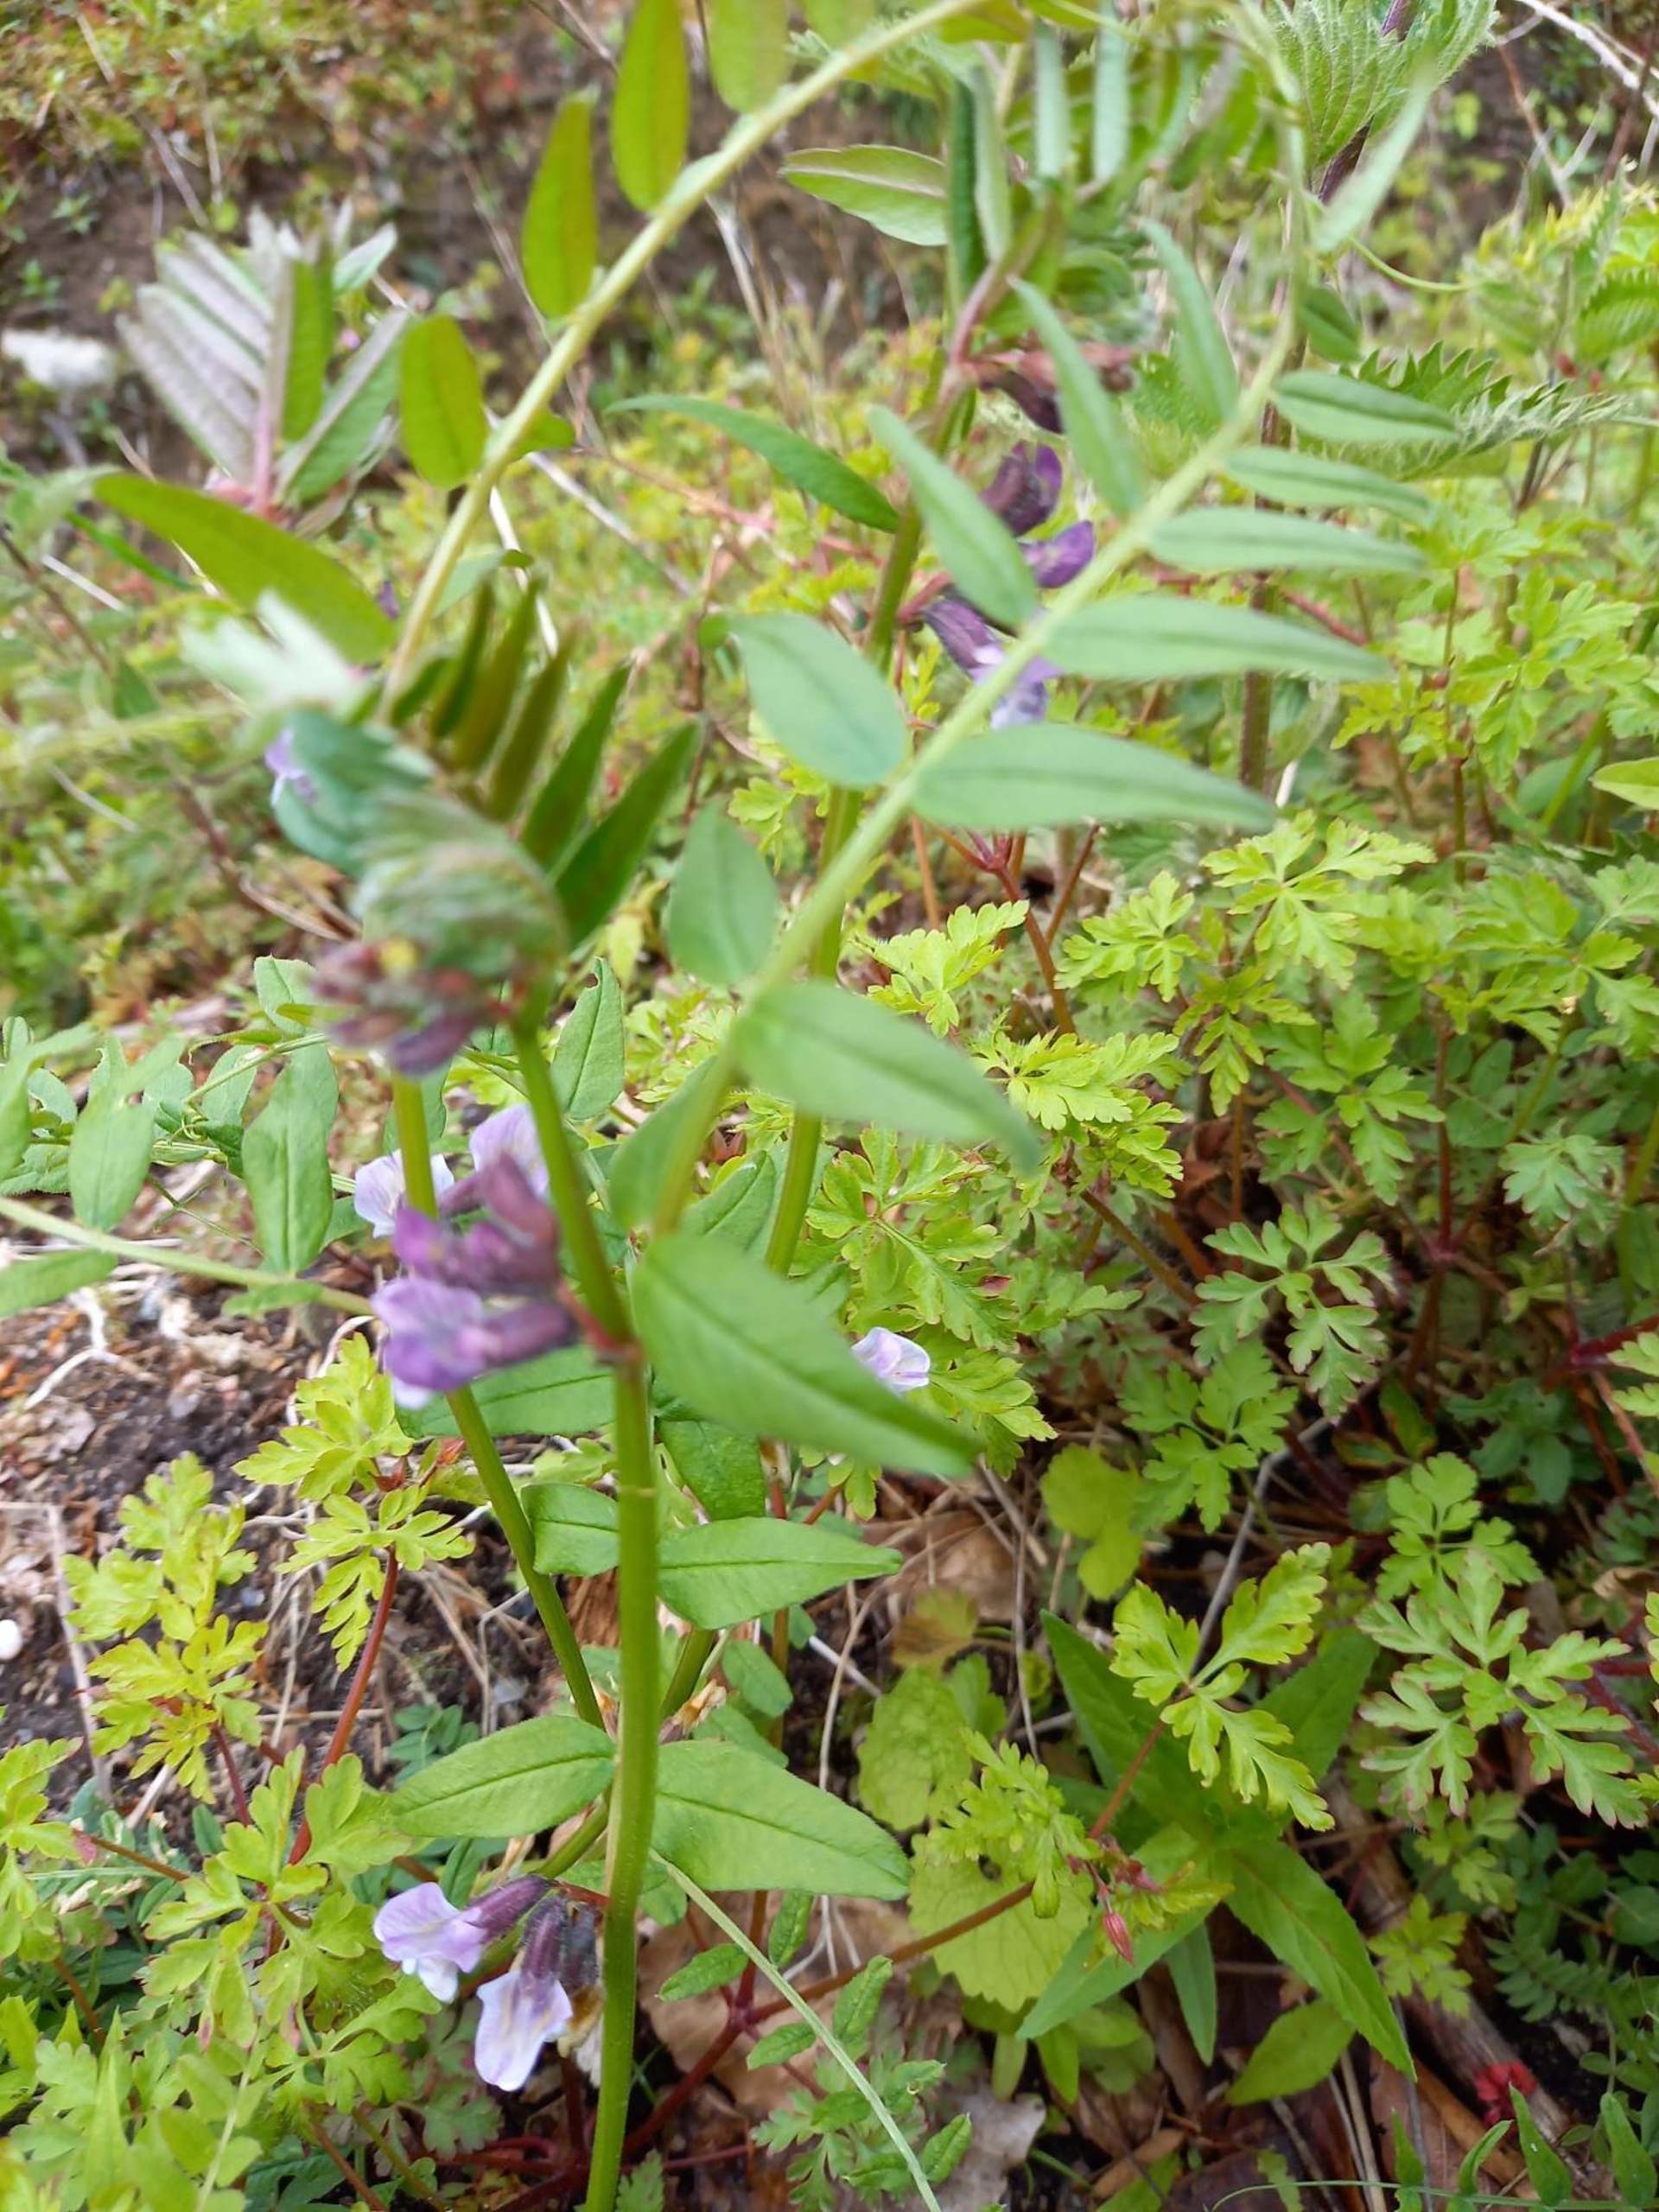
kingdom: Plantae
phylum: Tracheophyta
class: Magnoliopsida
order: Fabales
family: Fabaceae
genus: Vicia
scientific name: Vicia sepium
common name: Gærde-vikke
